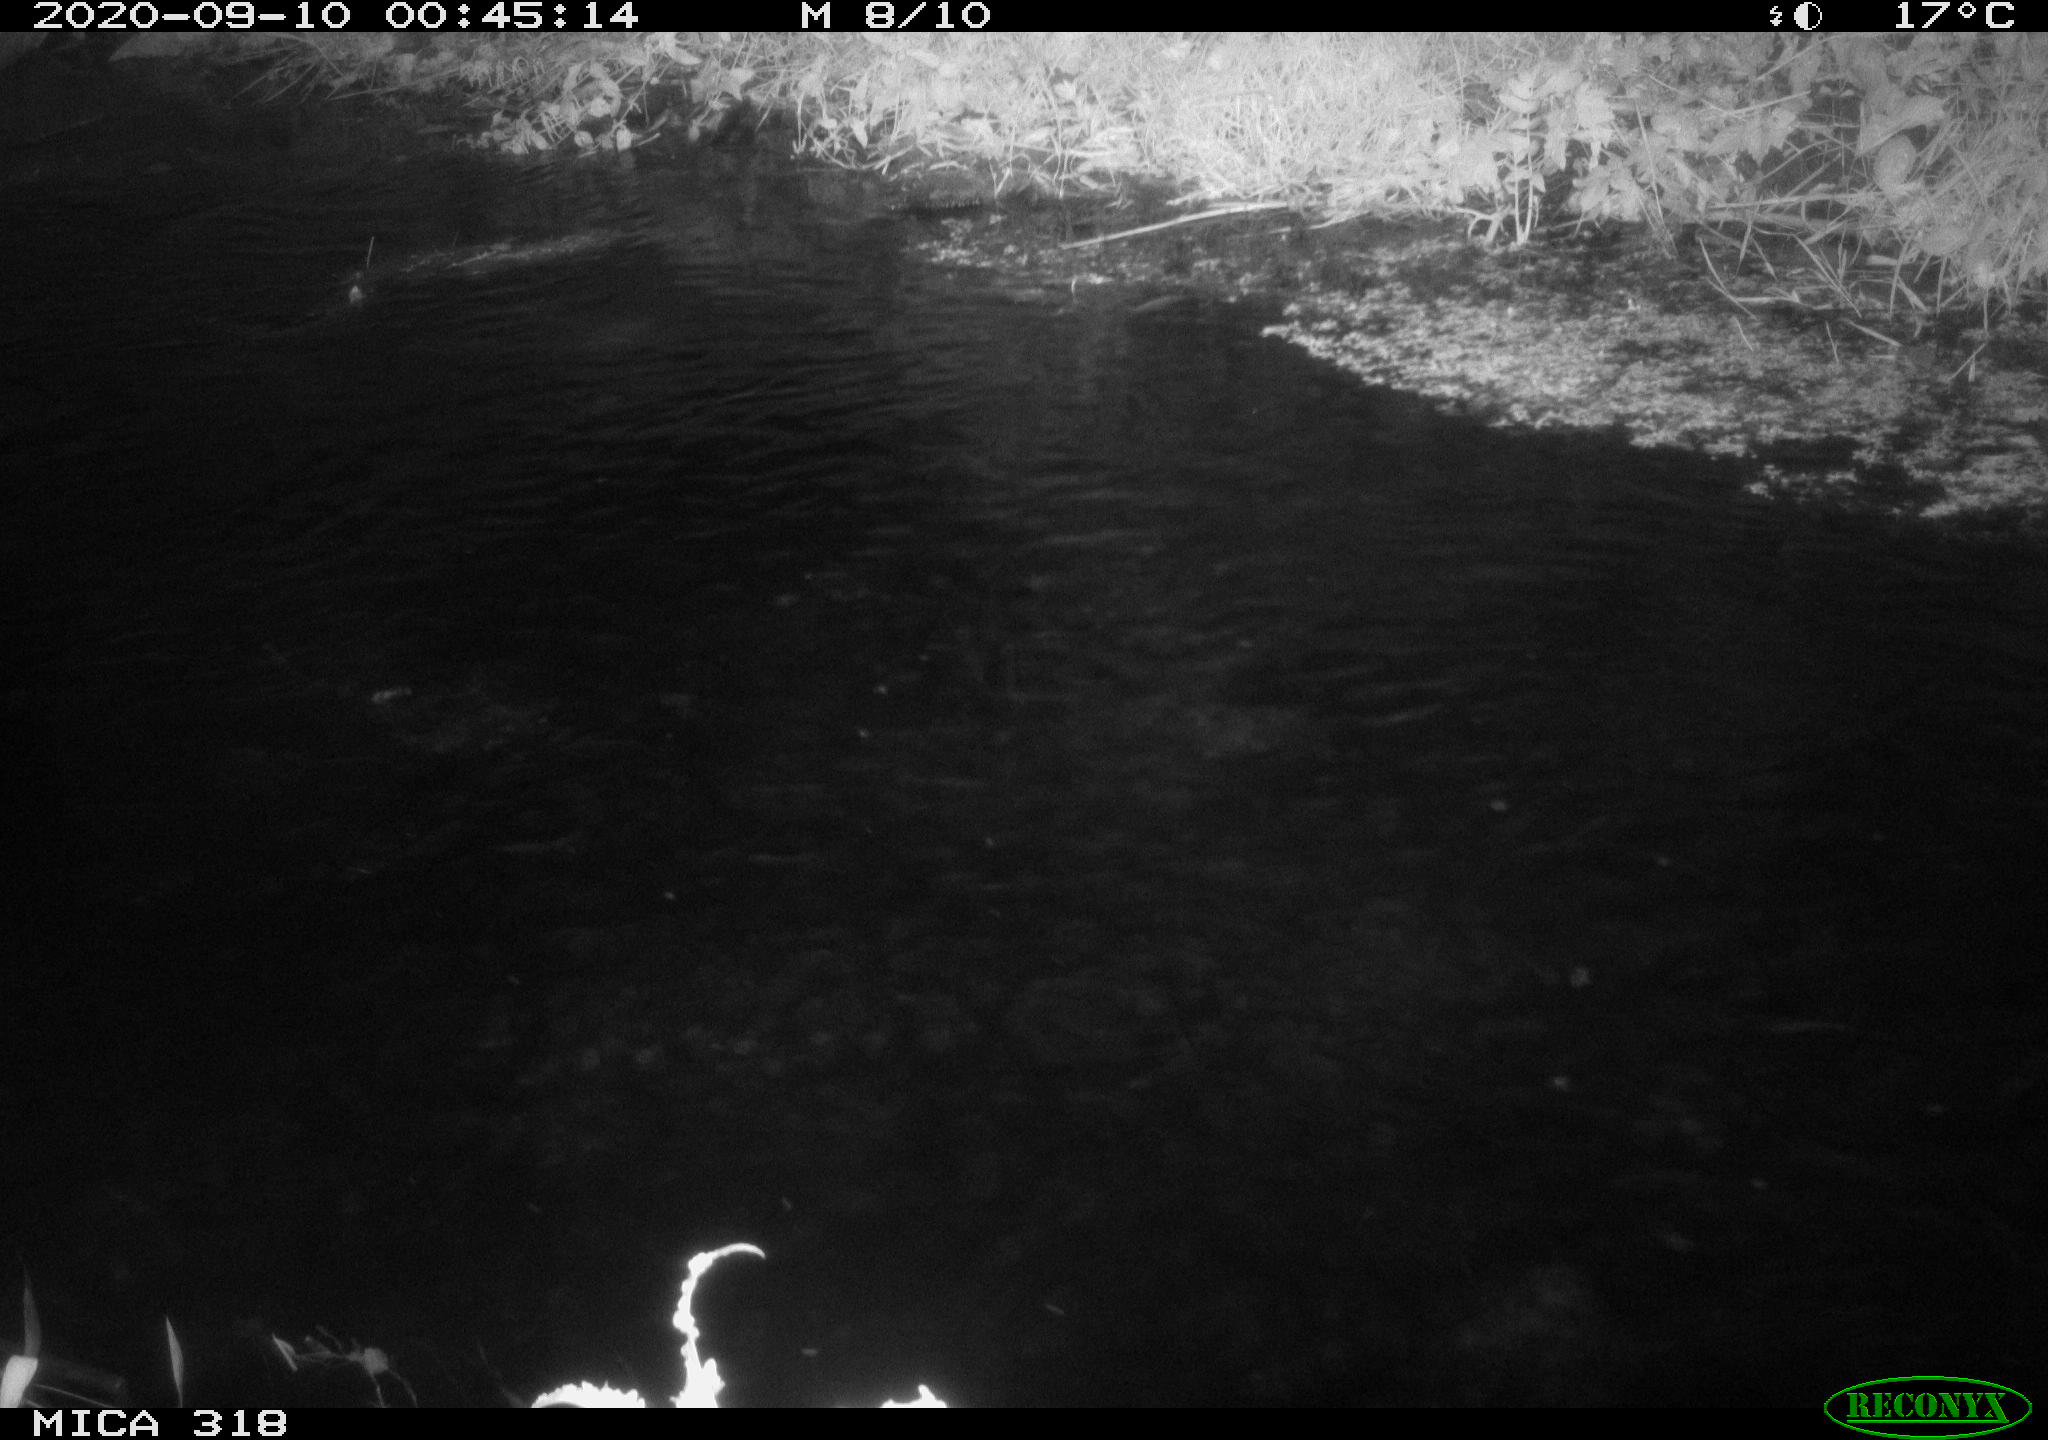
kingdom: Animalia
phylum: Chordata
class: Aves
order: Pelecaniformes
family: Ardeidae
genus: Ardea
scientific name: Ardea
